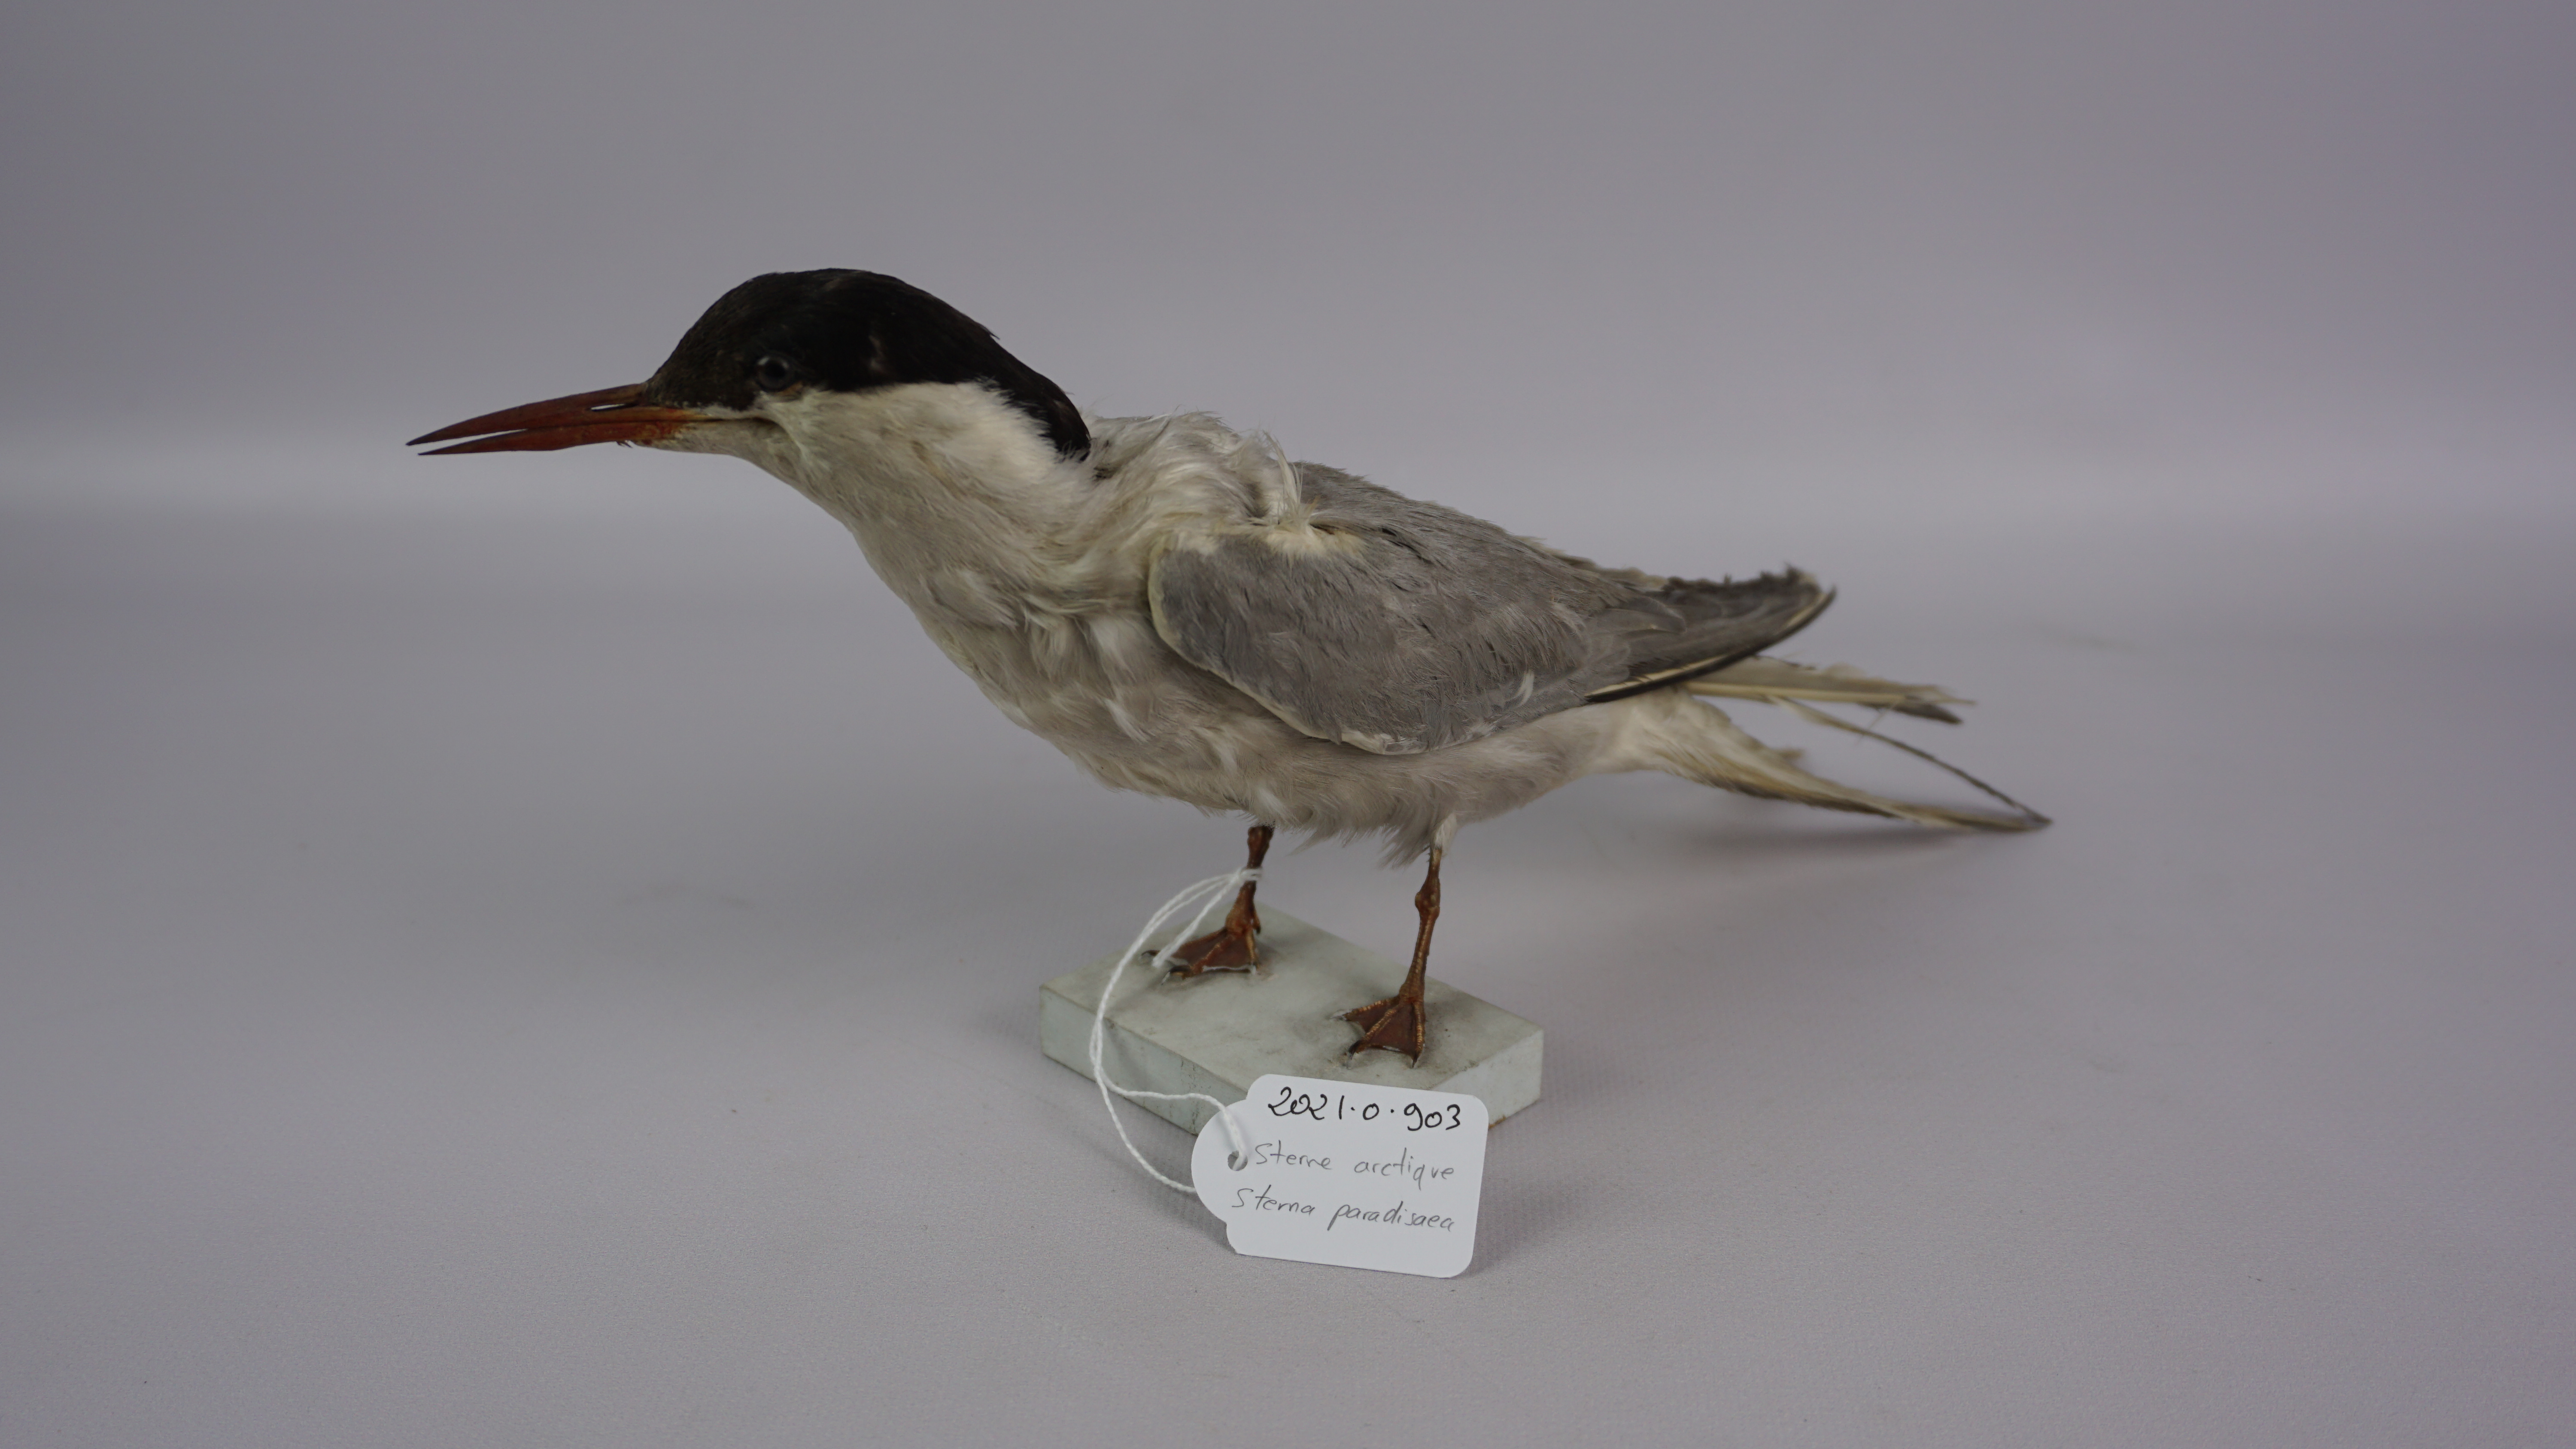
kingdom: Animalia
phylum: Chordata
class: Aves
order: Charadriiformes
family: Laridae
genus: Sterna
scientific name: Sterna paradisaea
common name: Arctic tern
